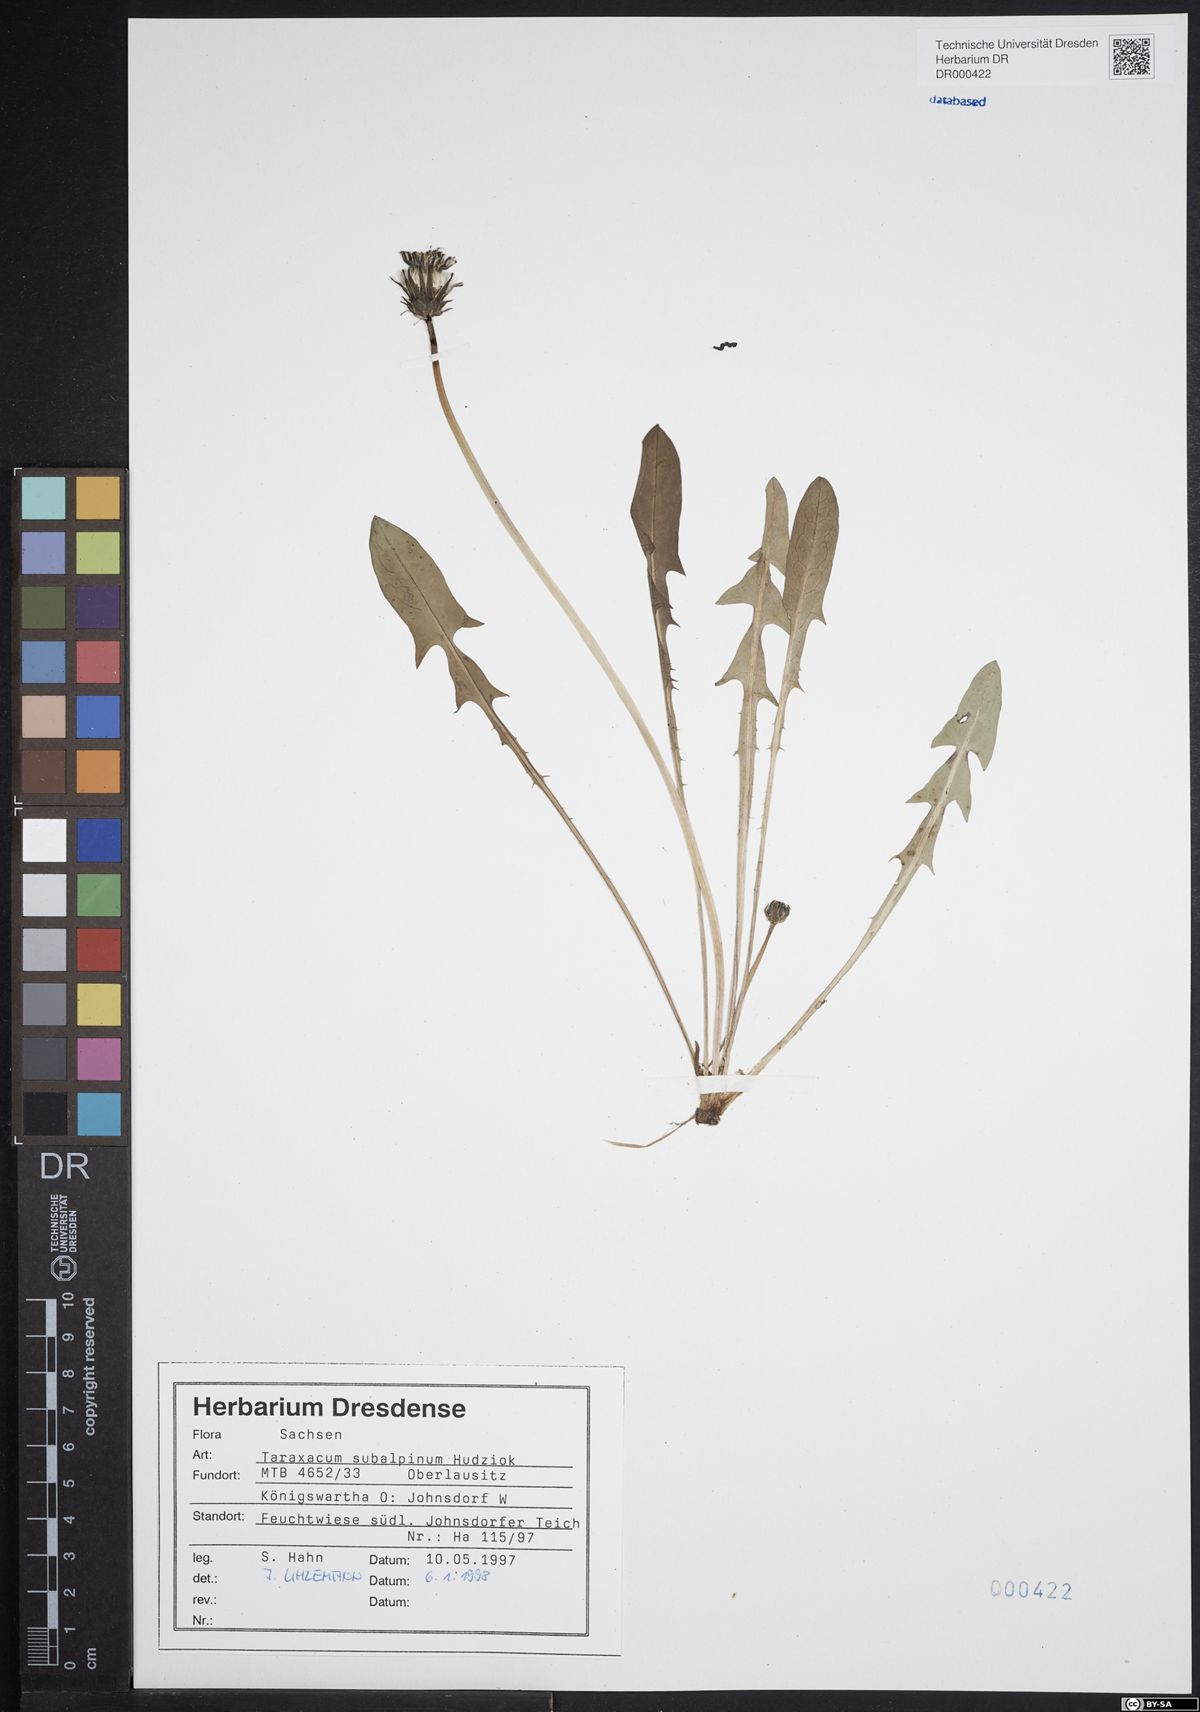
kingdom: Plantae
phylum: Tracheophyta
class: Magnoliopsida
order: Asterales
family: Asteraceae
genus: Taraxacum
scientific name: Taraxacum subalpinum
